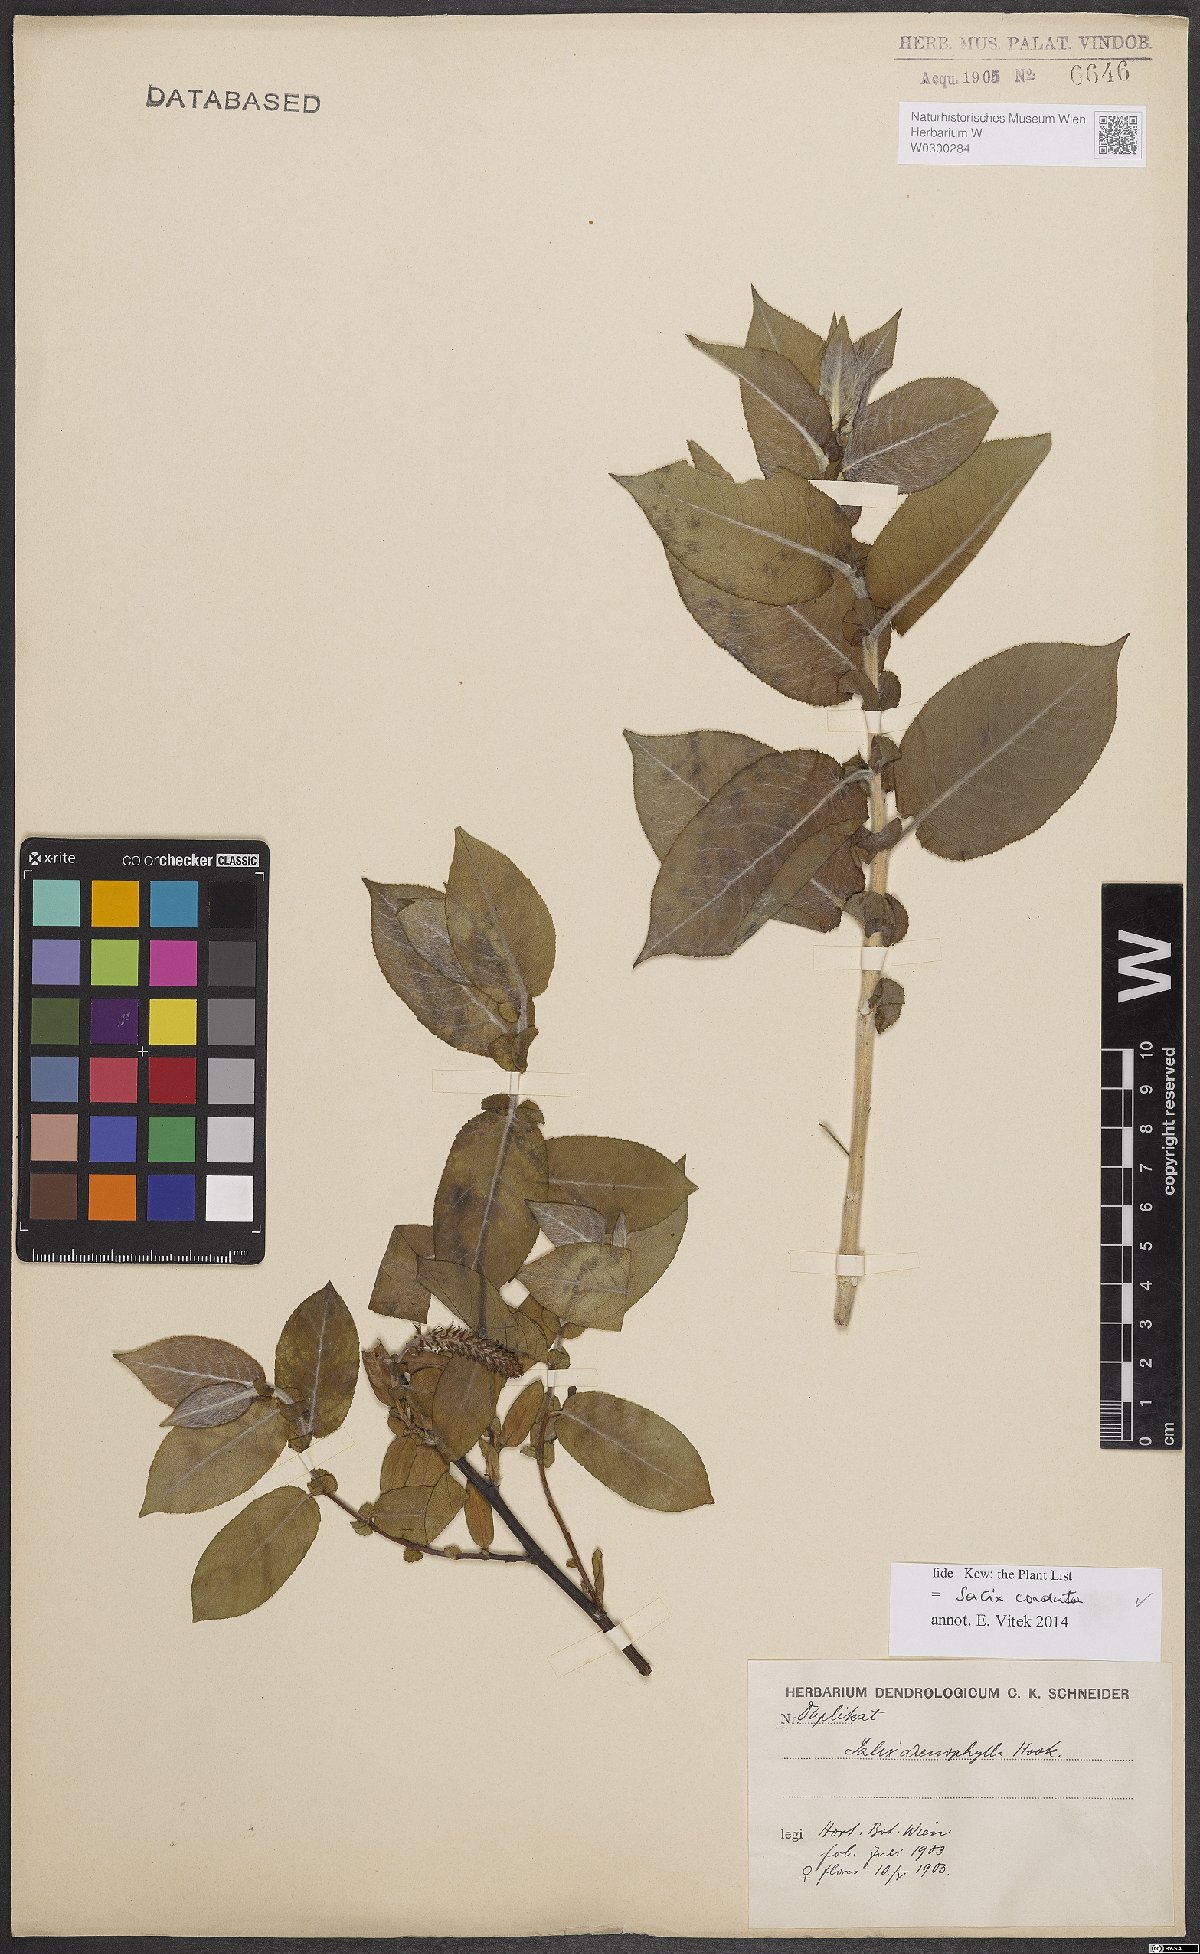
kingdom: Plantae
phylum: Tracheophyta
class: Magnoliopsida
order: Malpighiales
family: Salicaceae
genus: Salix
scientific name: Salix cordata
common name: Heart-leaf willow
